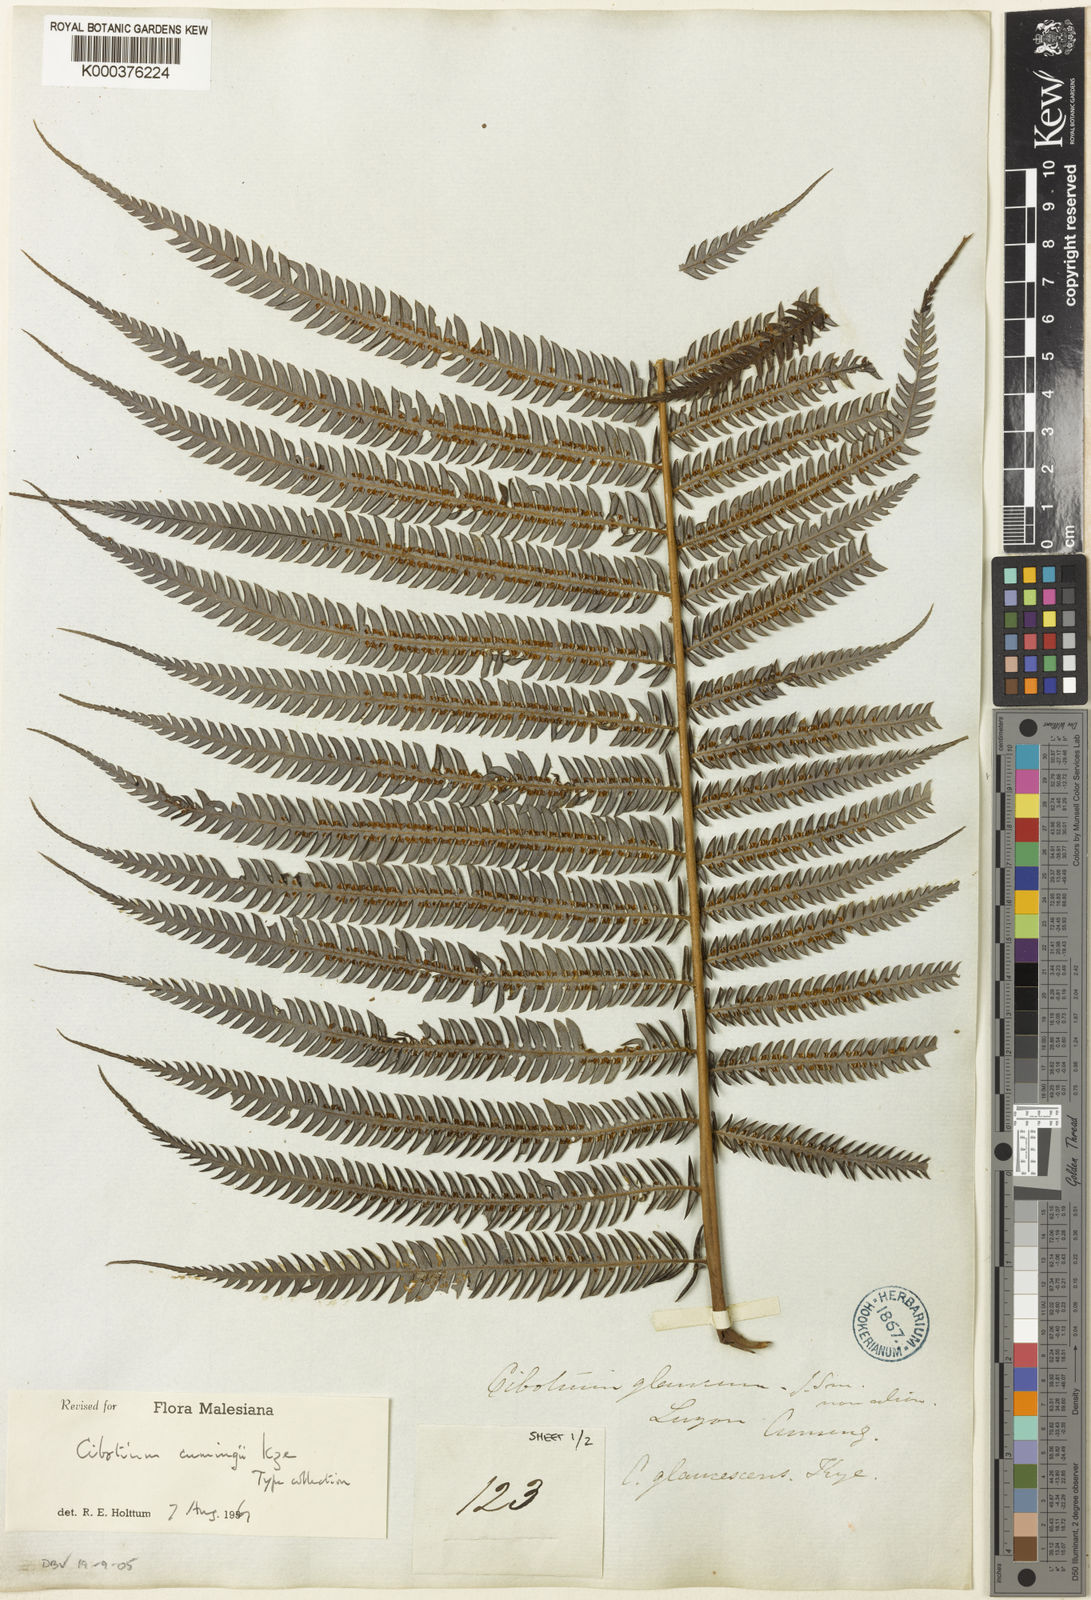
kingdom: Plantae
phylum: Tracheophyta
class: Polypodiopsida
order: Cyatheales
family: Cibotiaceae
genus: Cibotium
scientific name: Cibotium cumingii
